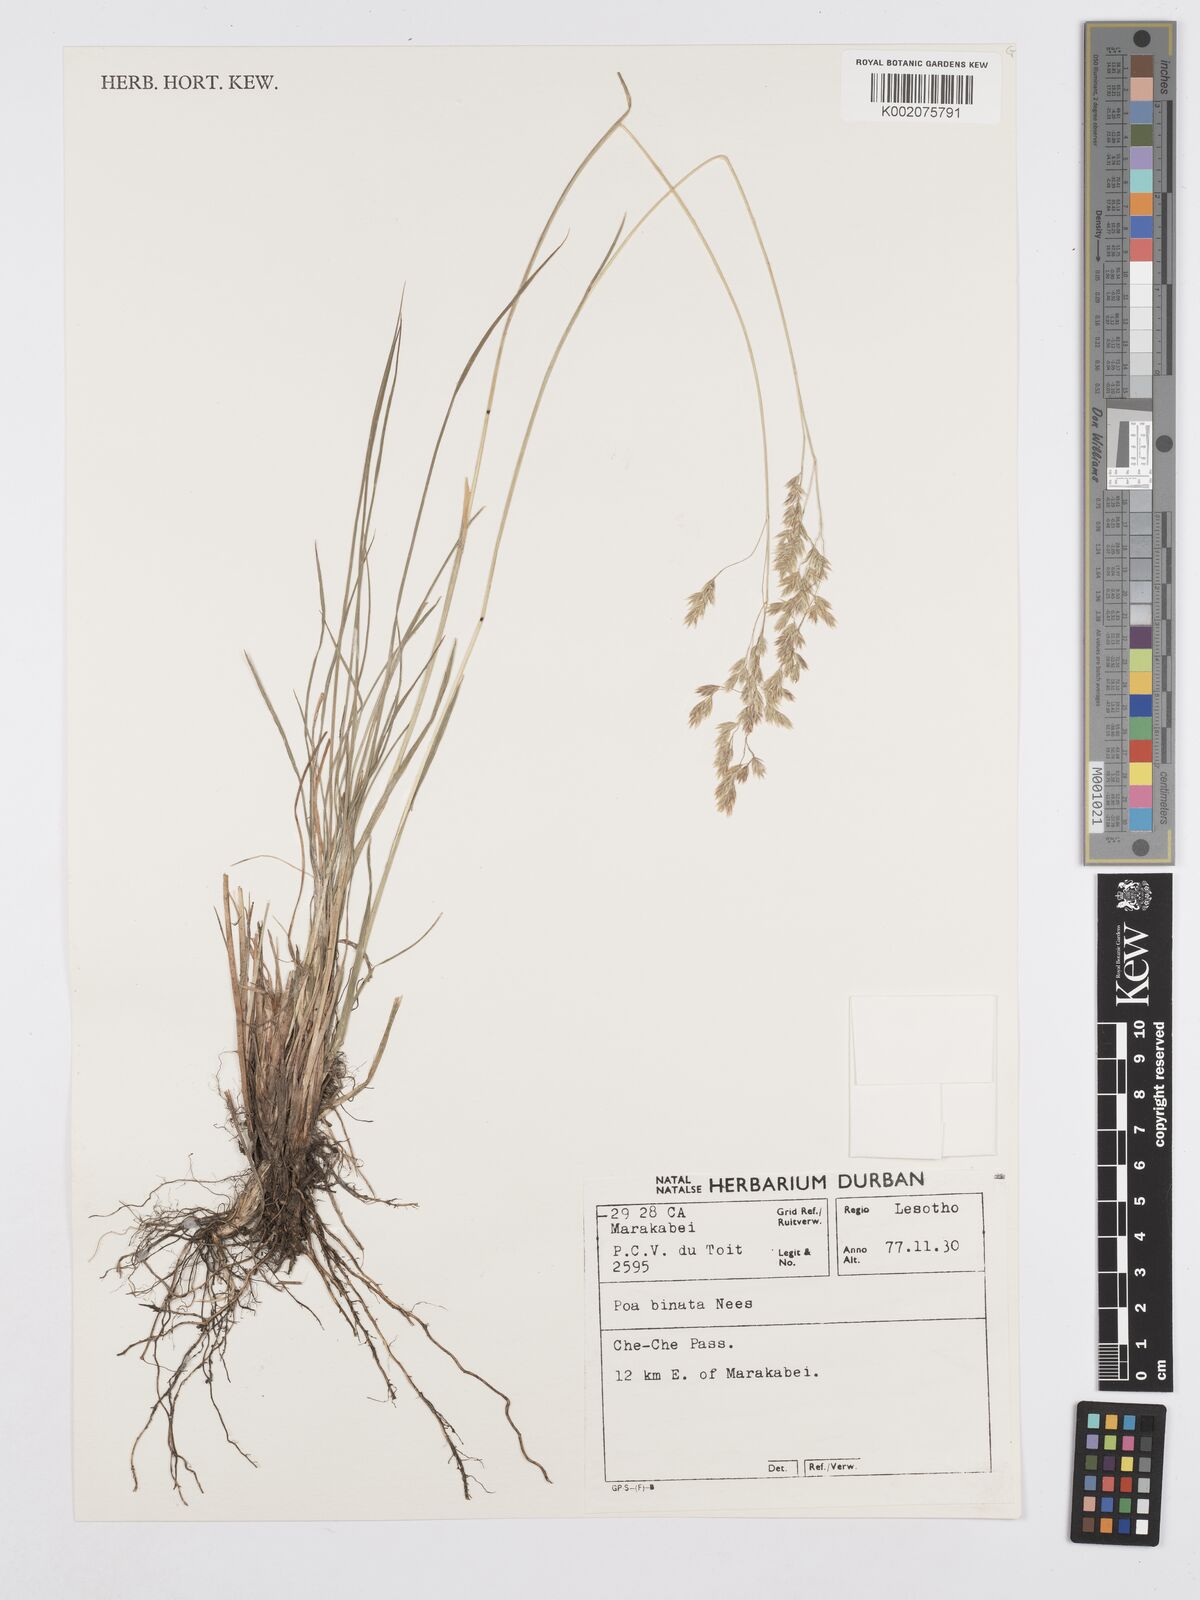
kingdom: Plantae
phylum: Tracheophyta
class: Liliopsida
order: Poales
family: Poaceae
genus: Poa
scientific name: Poa binata
